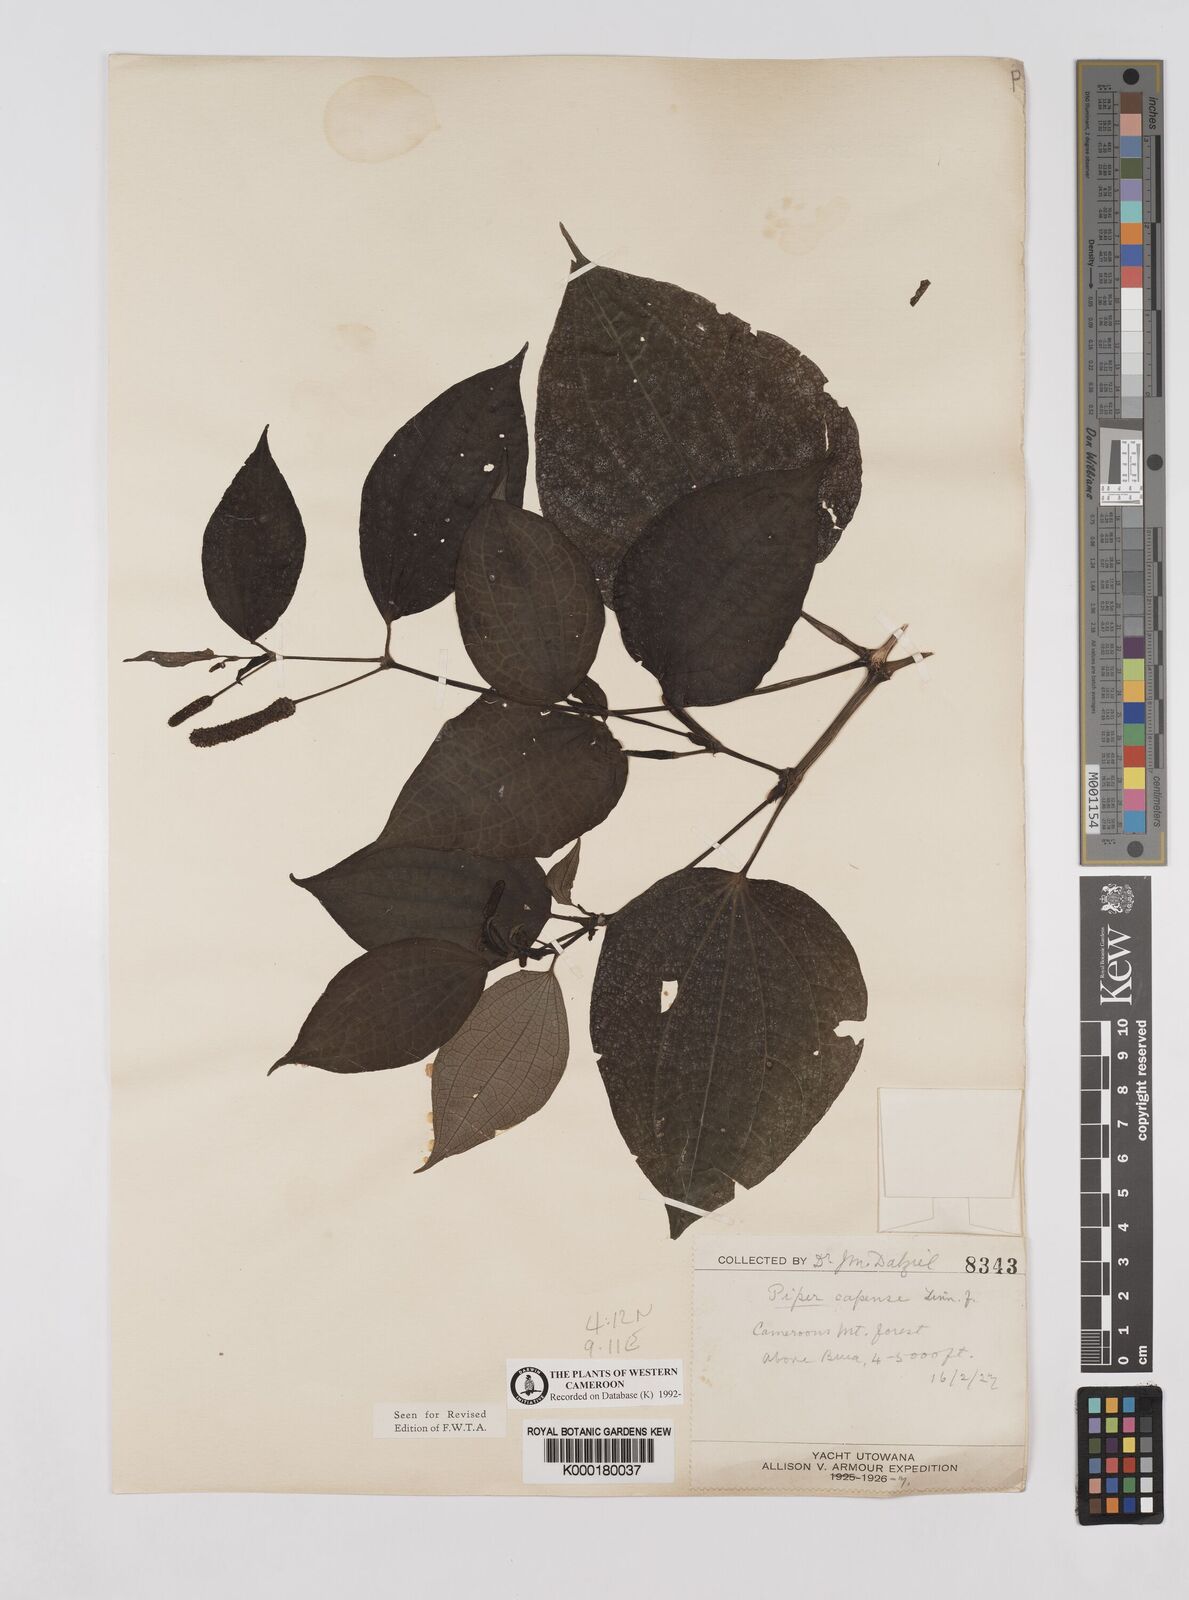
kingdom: Plantae
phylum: Tracheophyta
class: Magnoliopsida
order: Piperales
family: Piperaceae
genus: Piper
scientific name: Piper capense
